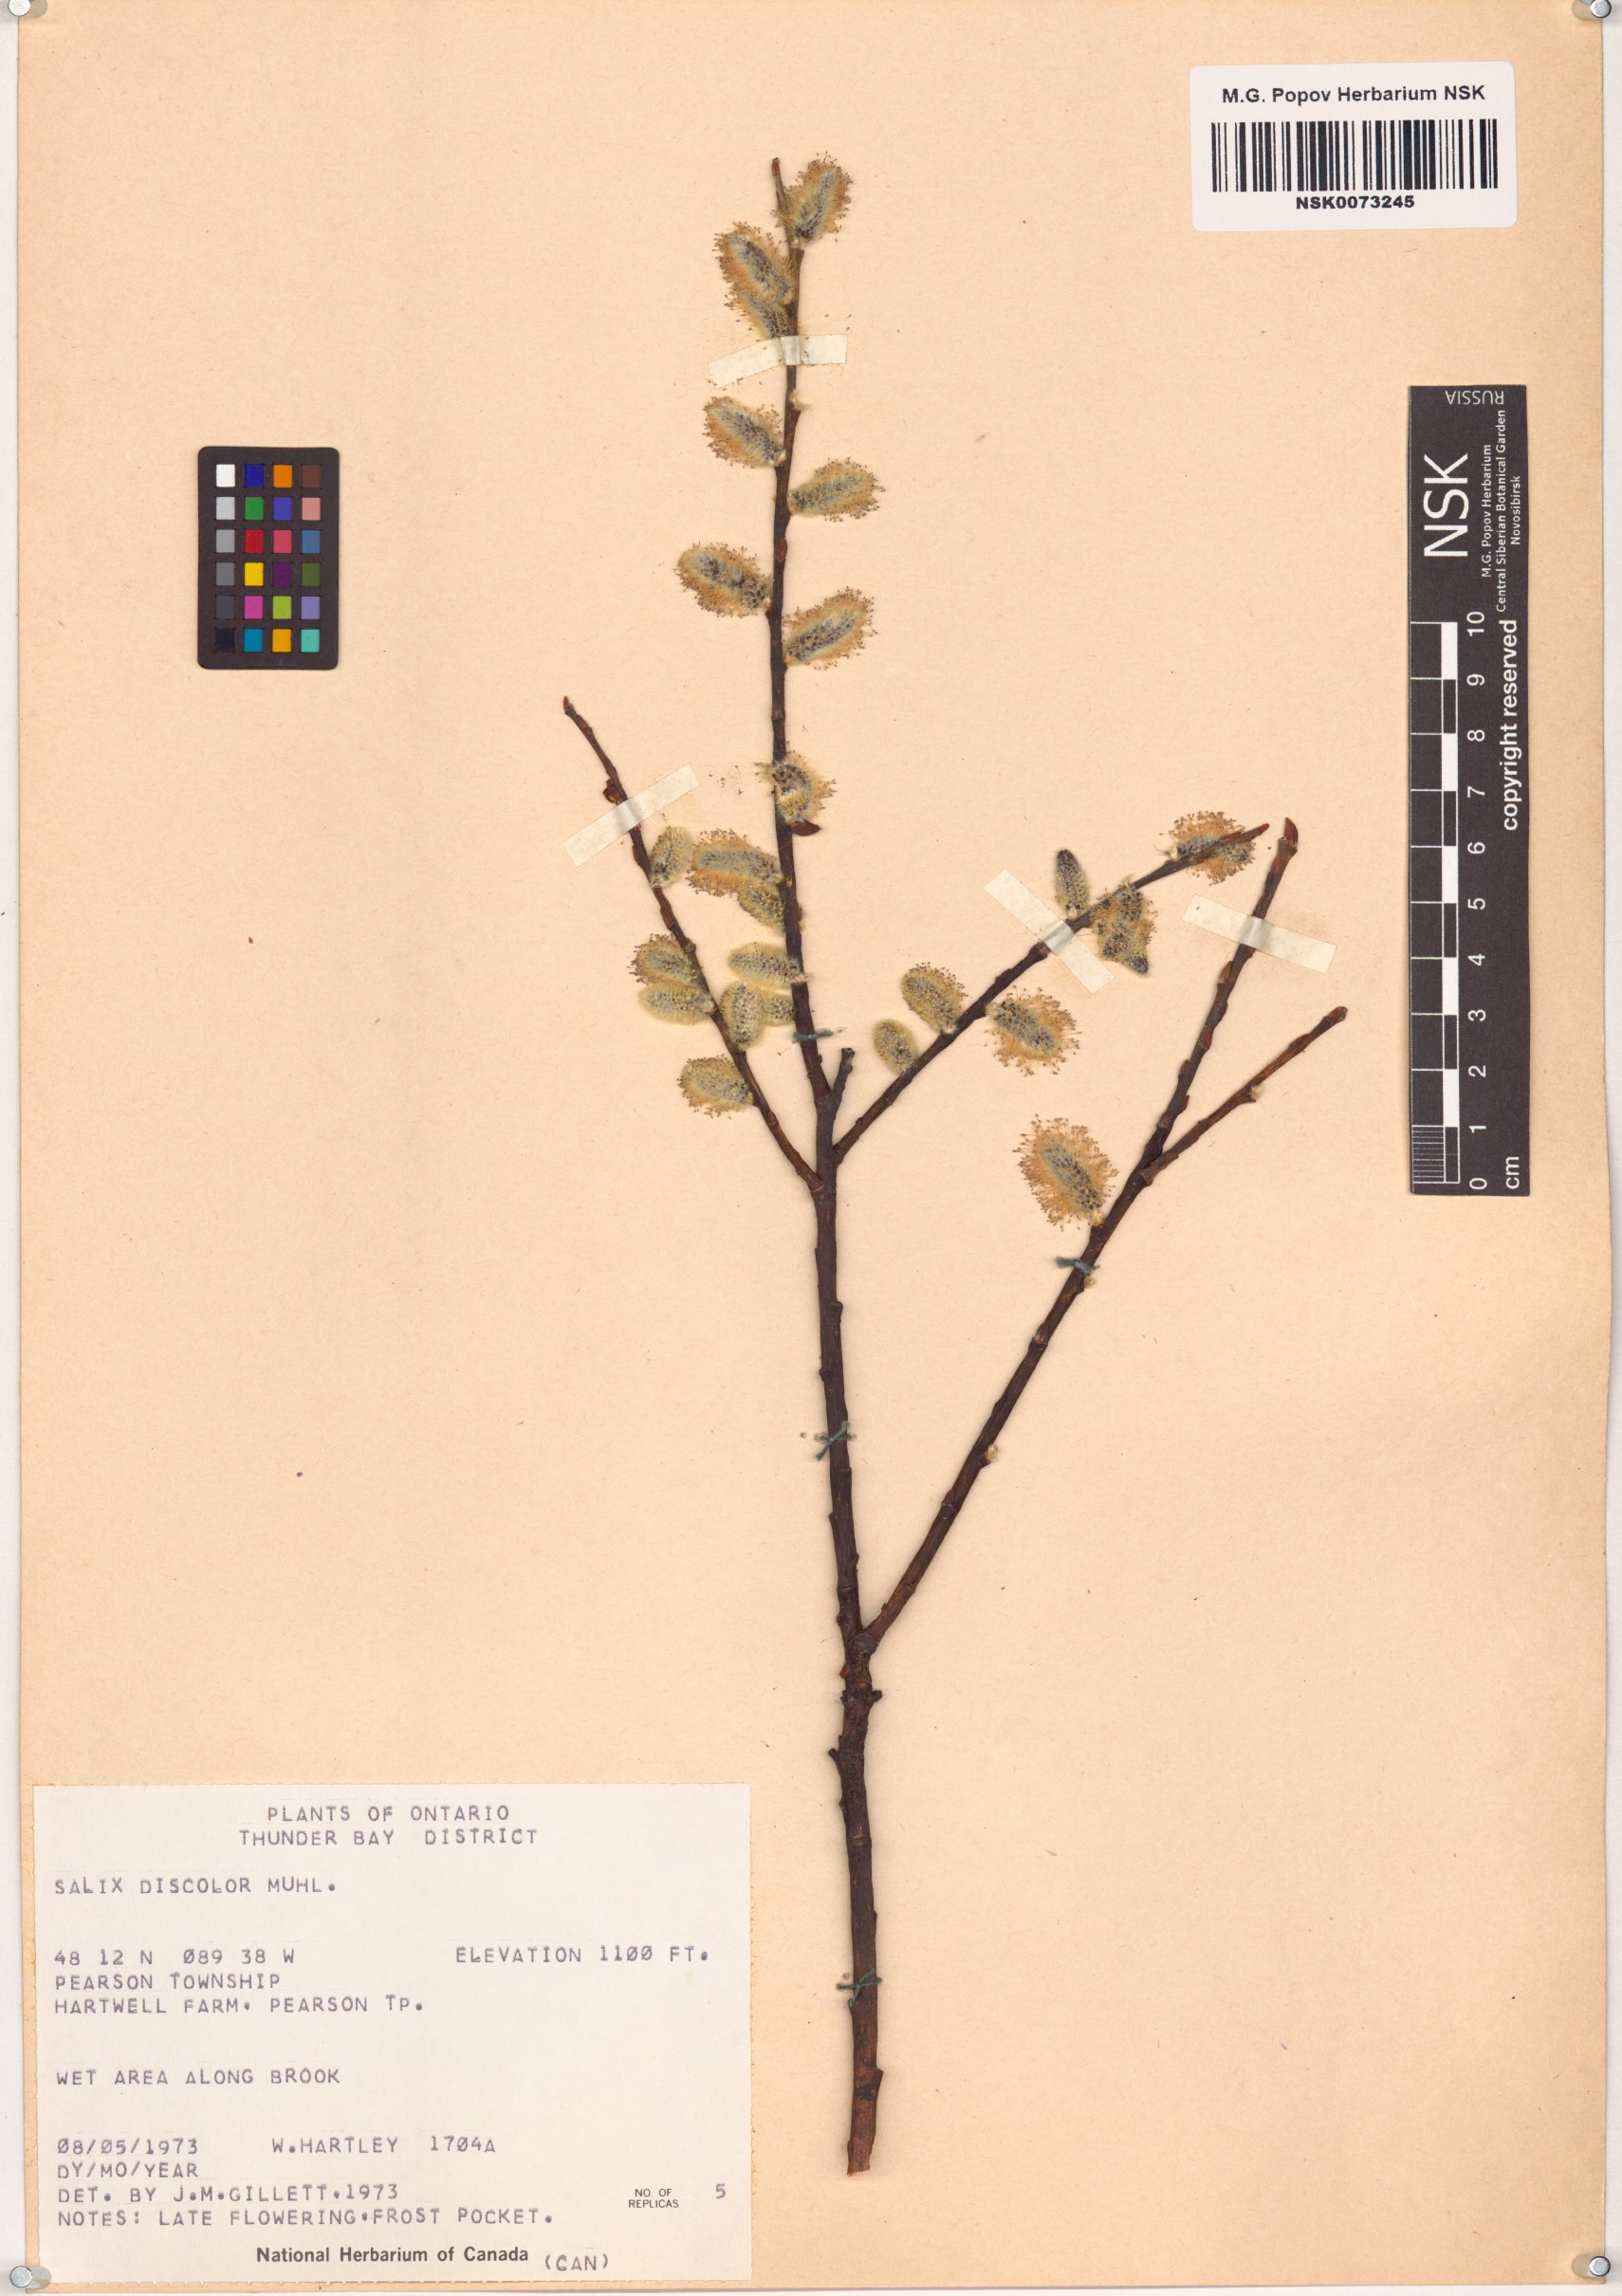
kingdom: Plantae
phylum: Tracheophyta
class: Magnoliopsida
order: Malpighiales
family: Salicaceae
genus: Salix
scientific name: Salix discolor
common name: Glaucous willow
